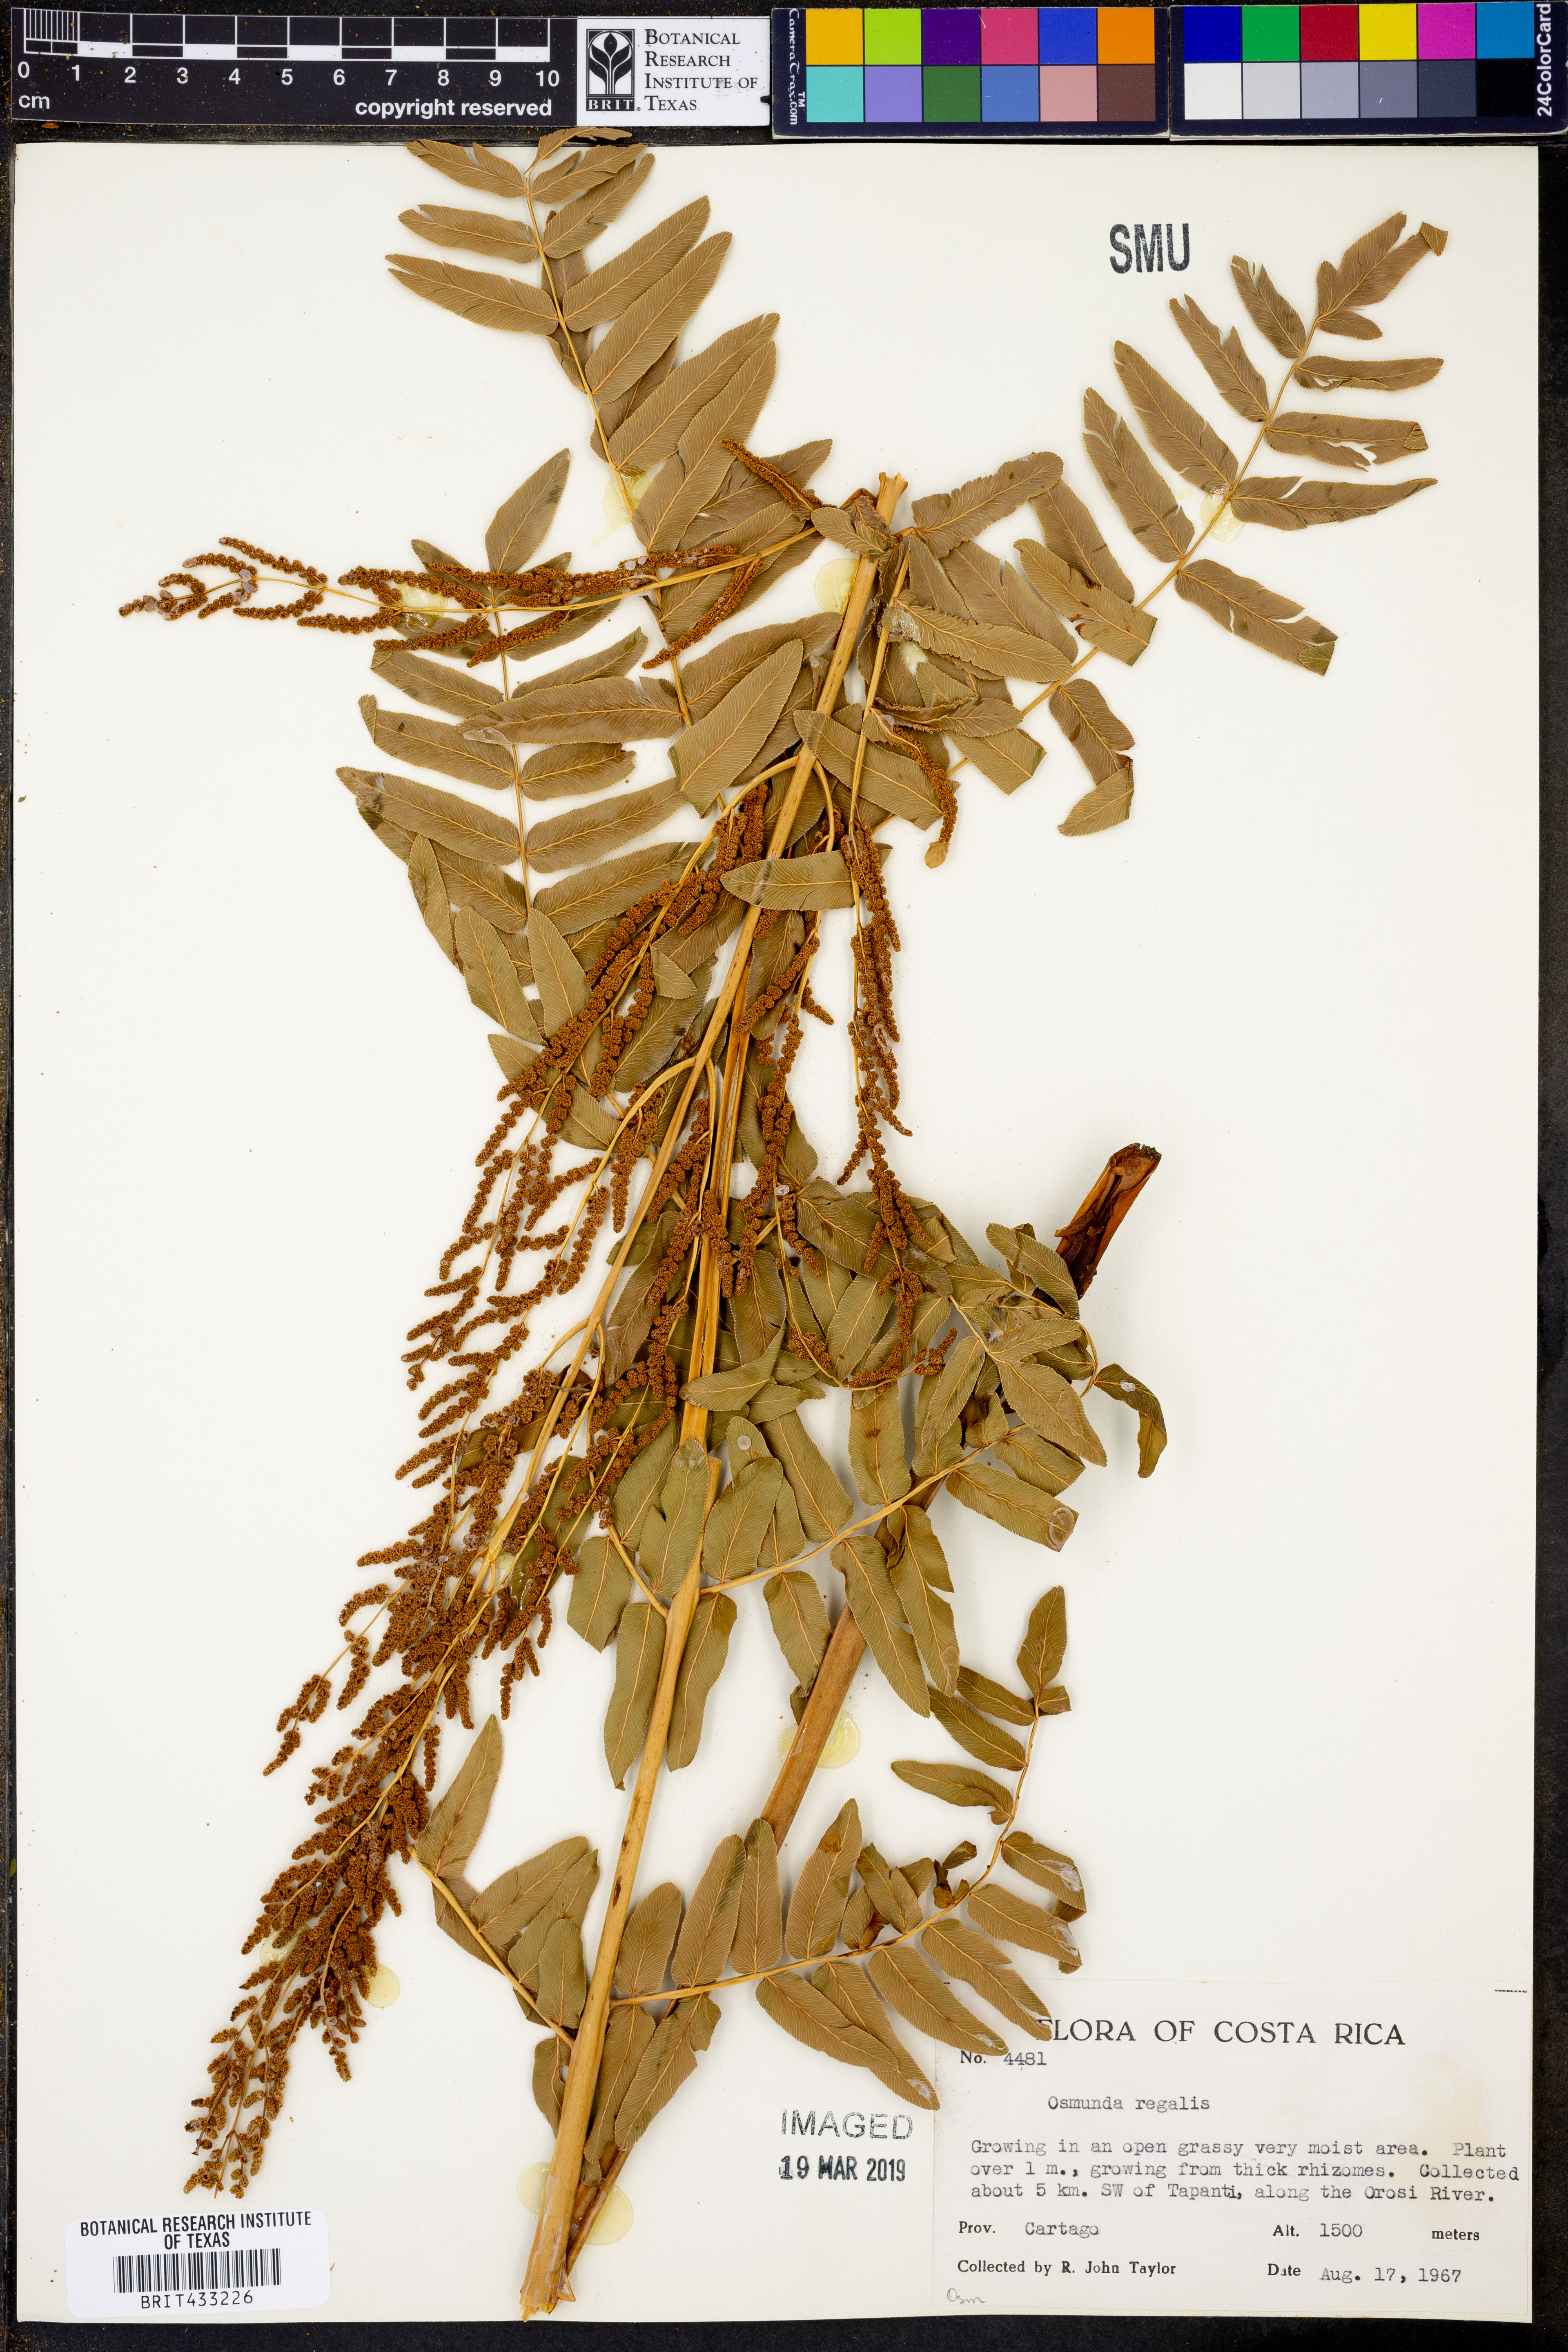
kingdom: Plantae
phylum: Tracheophyta
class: Polypodiopsida
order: Osmundales
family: Osmundaceae
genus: Osmunda
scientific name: Osmunda regalis
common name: Royal fern
